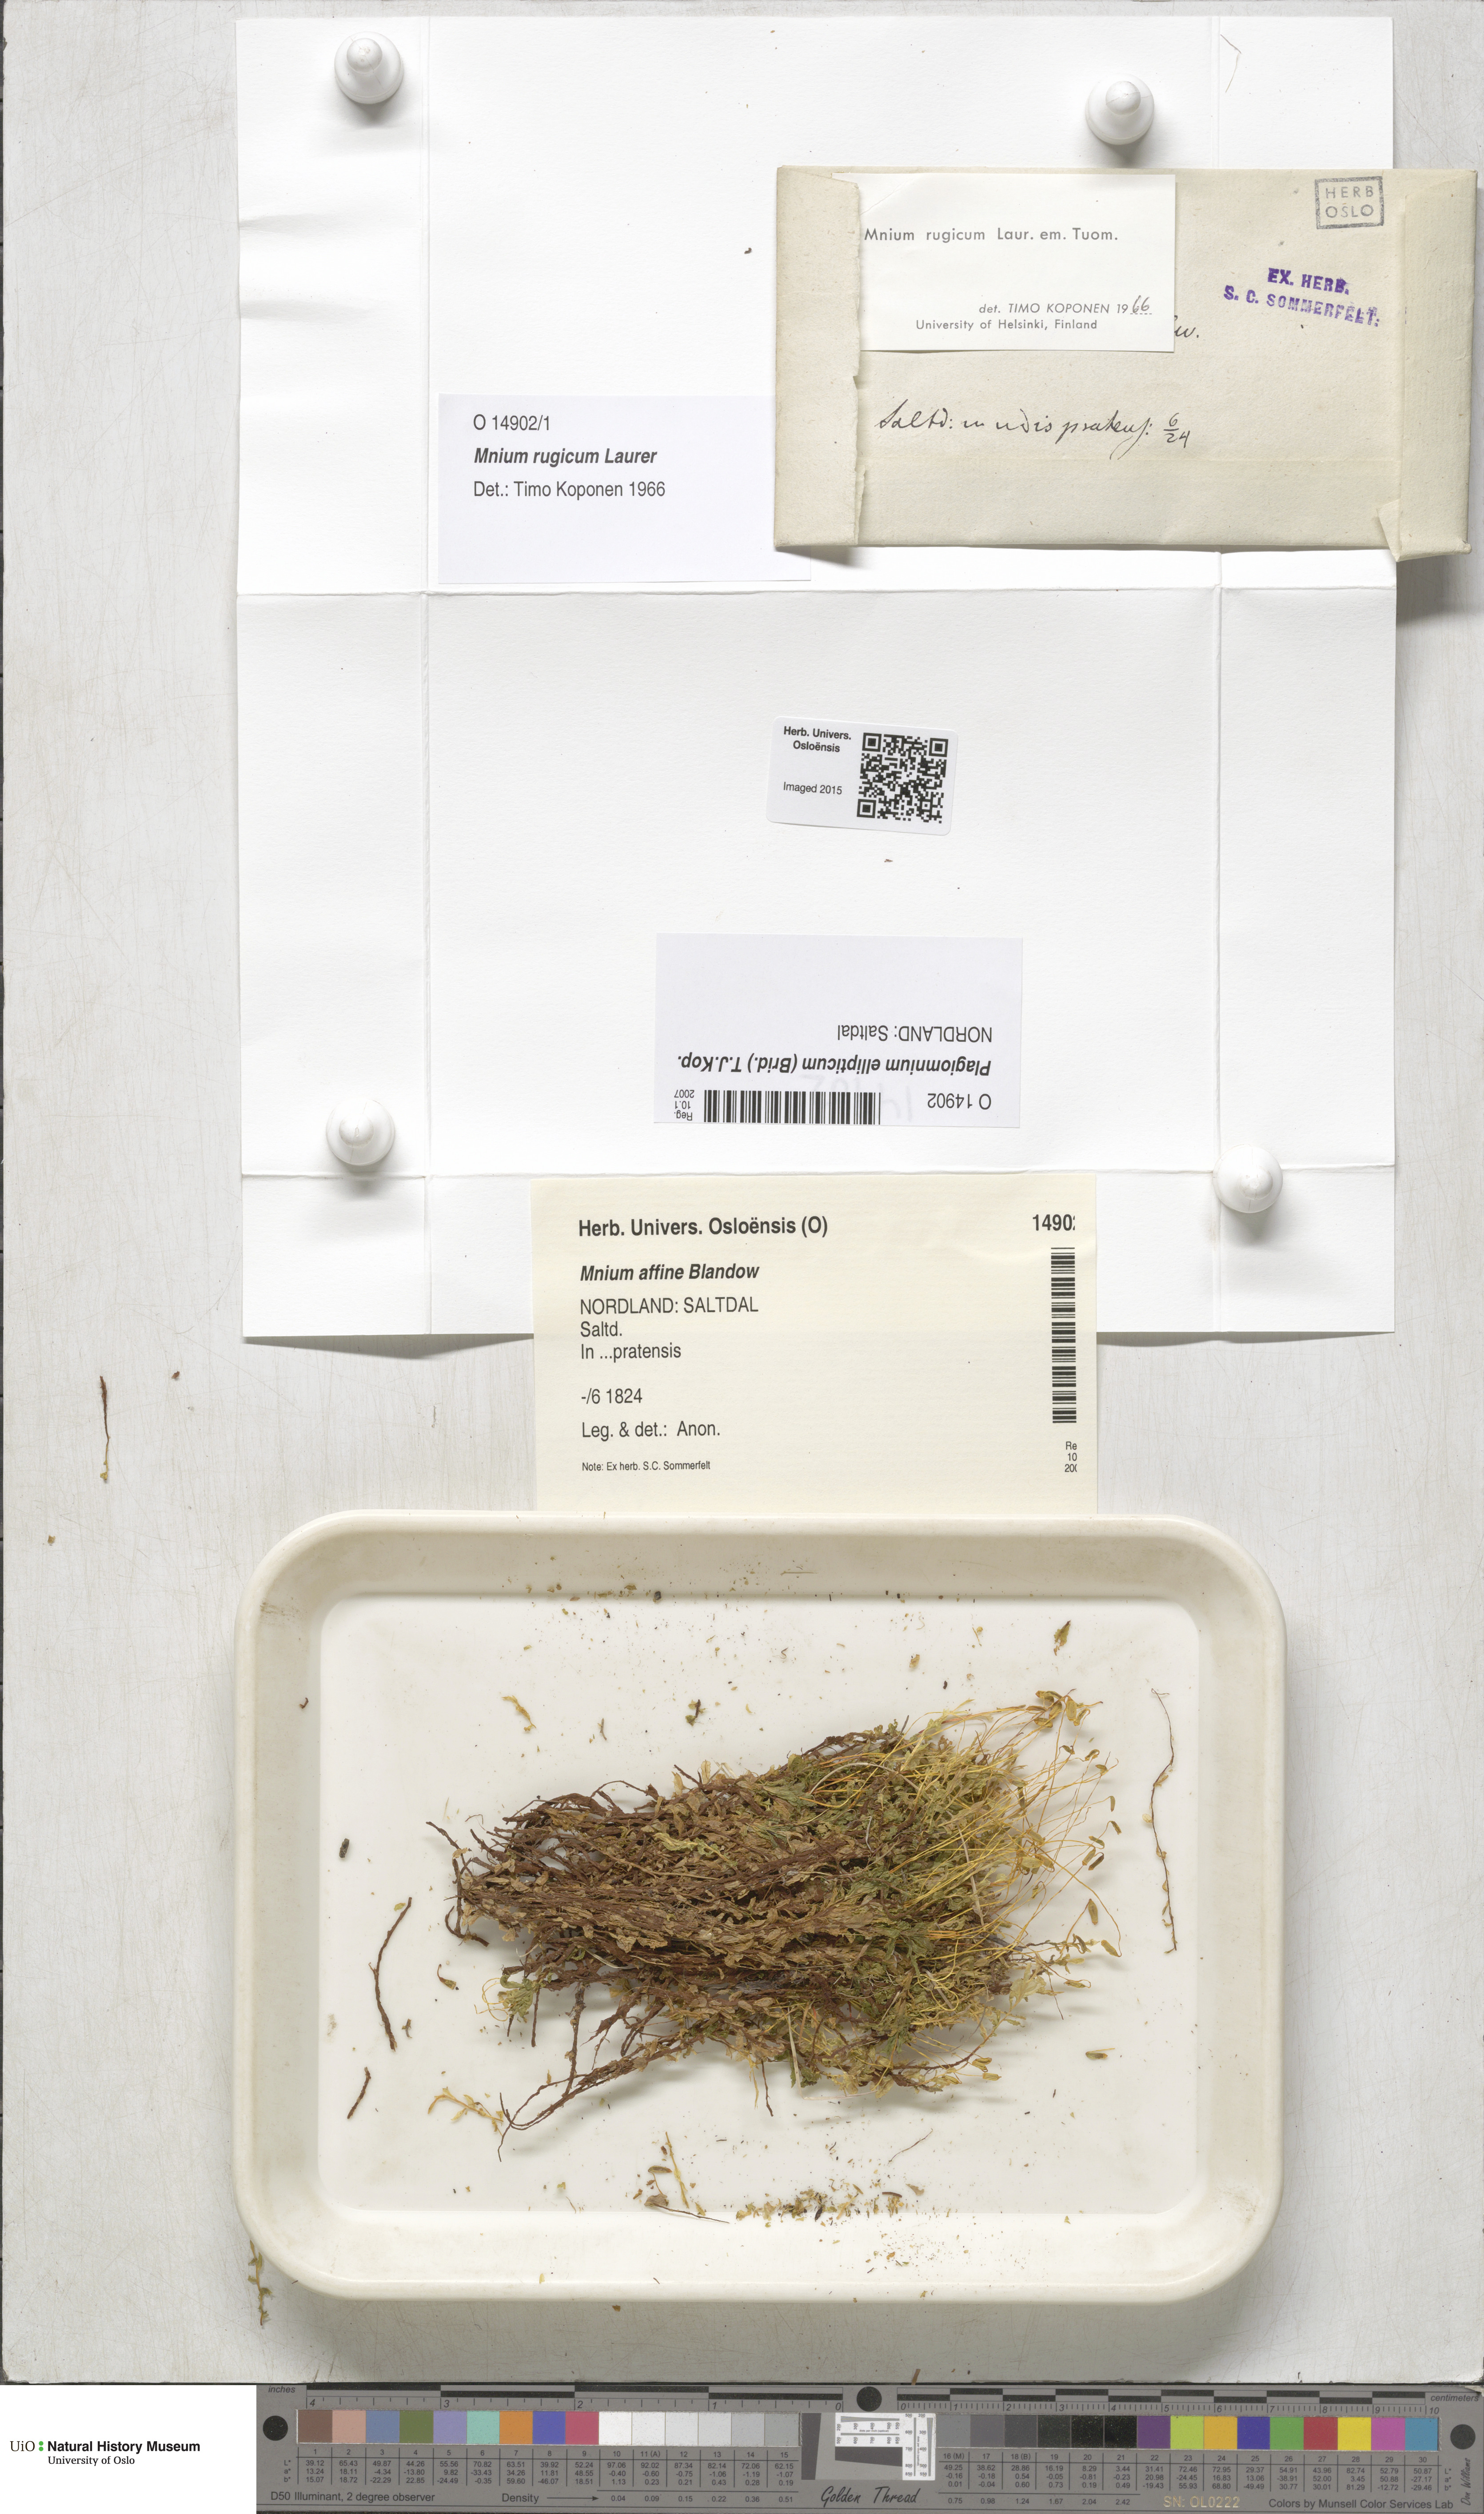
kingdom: Plantae
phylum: Bryophyta
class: Bryopsida
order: Bryales
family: Mniaceae
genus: Plagiomnium
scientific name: Plagiomnium ellipticum
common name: Marsh leafy moss
